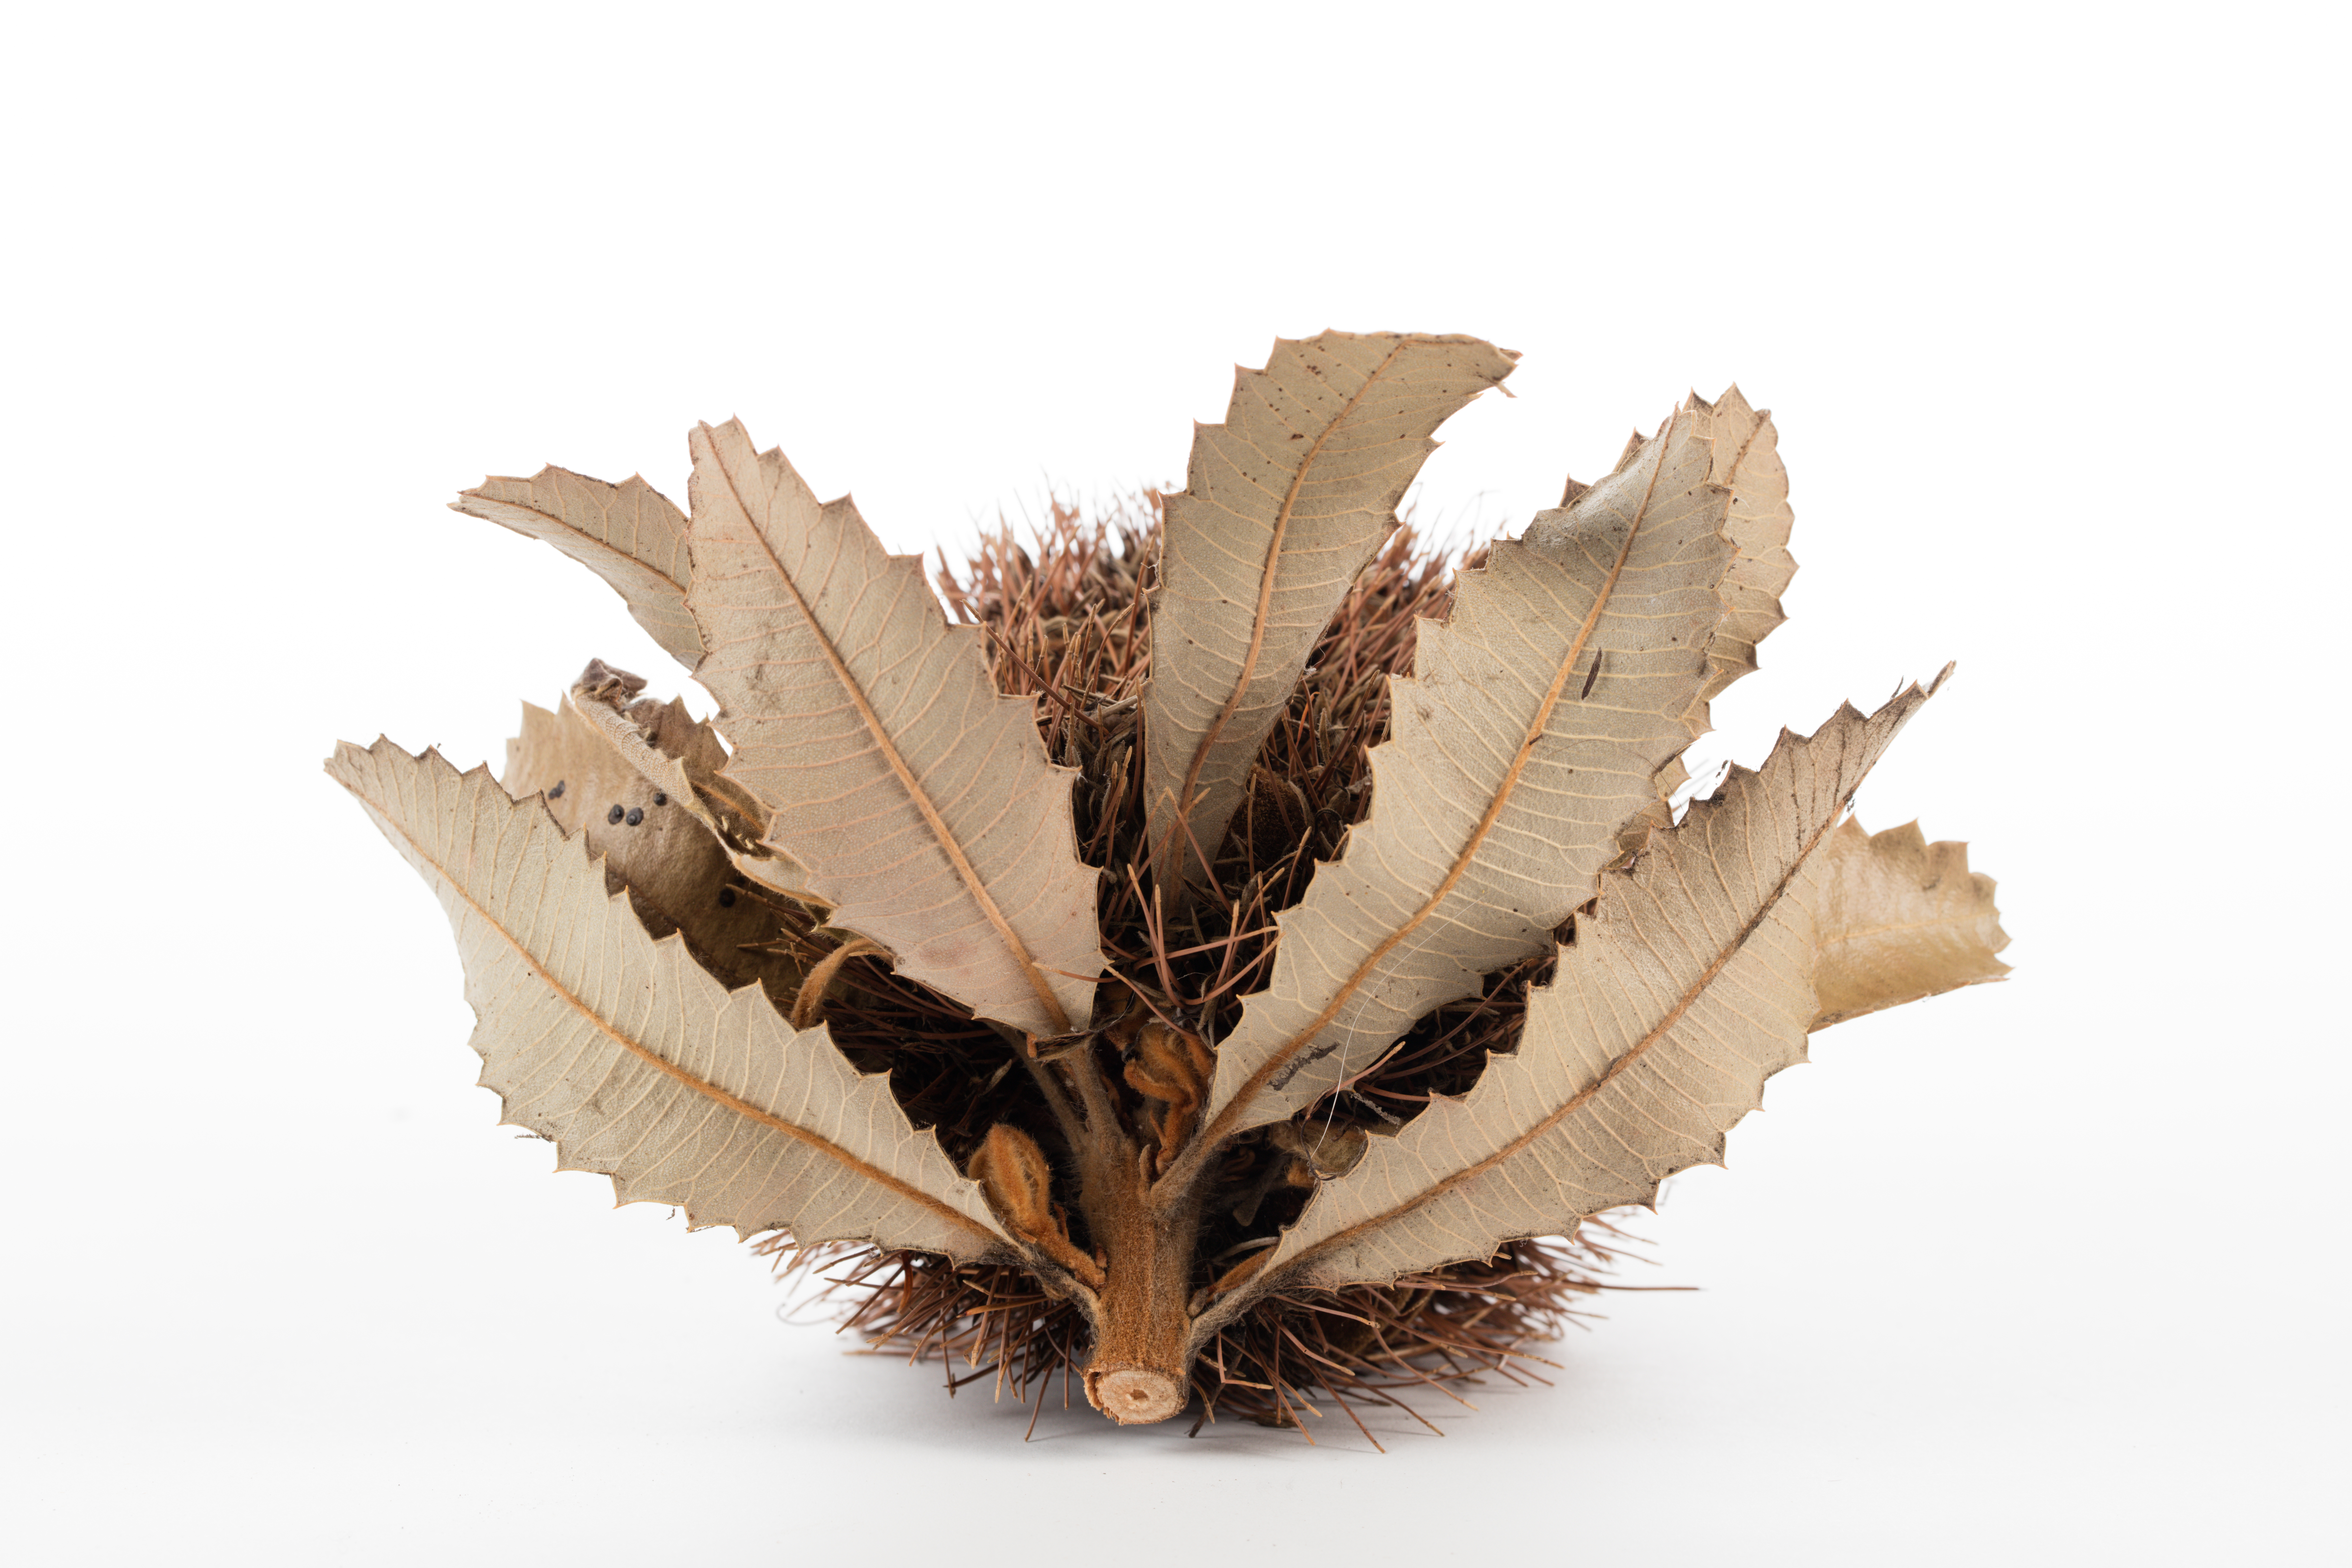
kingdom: Plantae
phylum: Tracheophyta
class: Magnoliopsida
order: Proteales
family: Proteaceae
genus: Banksia
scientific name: Banksia serrata
